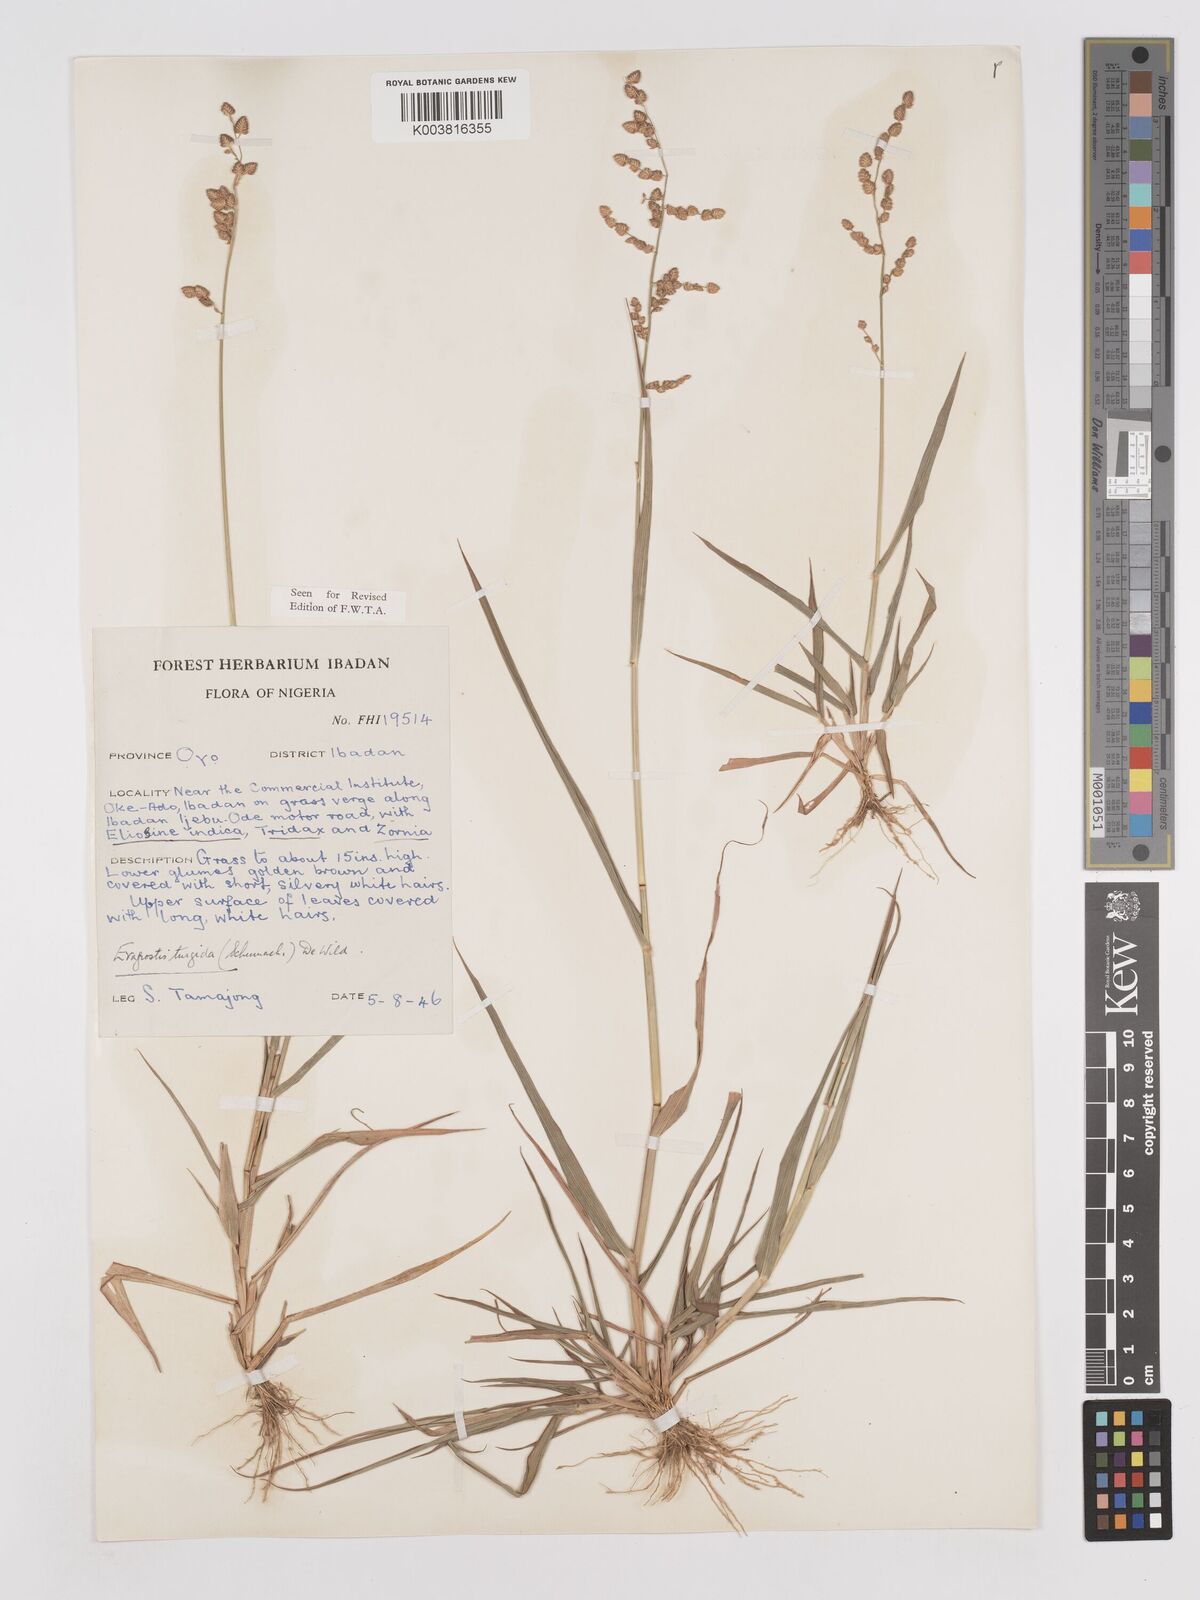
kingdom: Plantae
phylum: Tracheophyta
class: Liliopsida
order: Poales
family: Poaceae
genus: Eragrostis
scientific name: Eragrostis turgida
